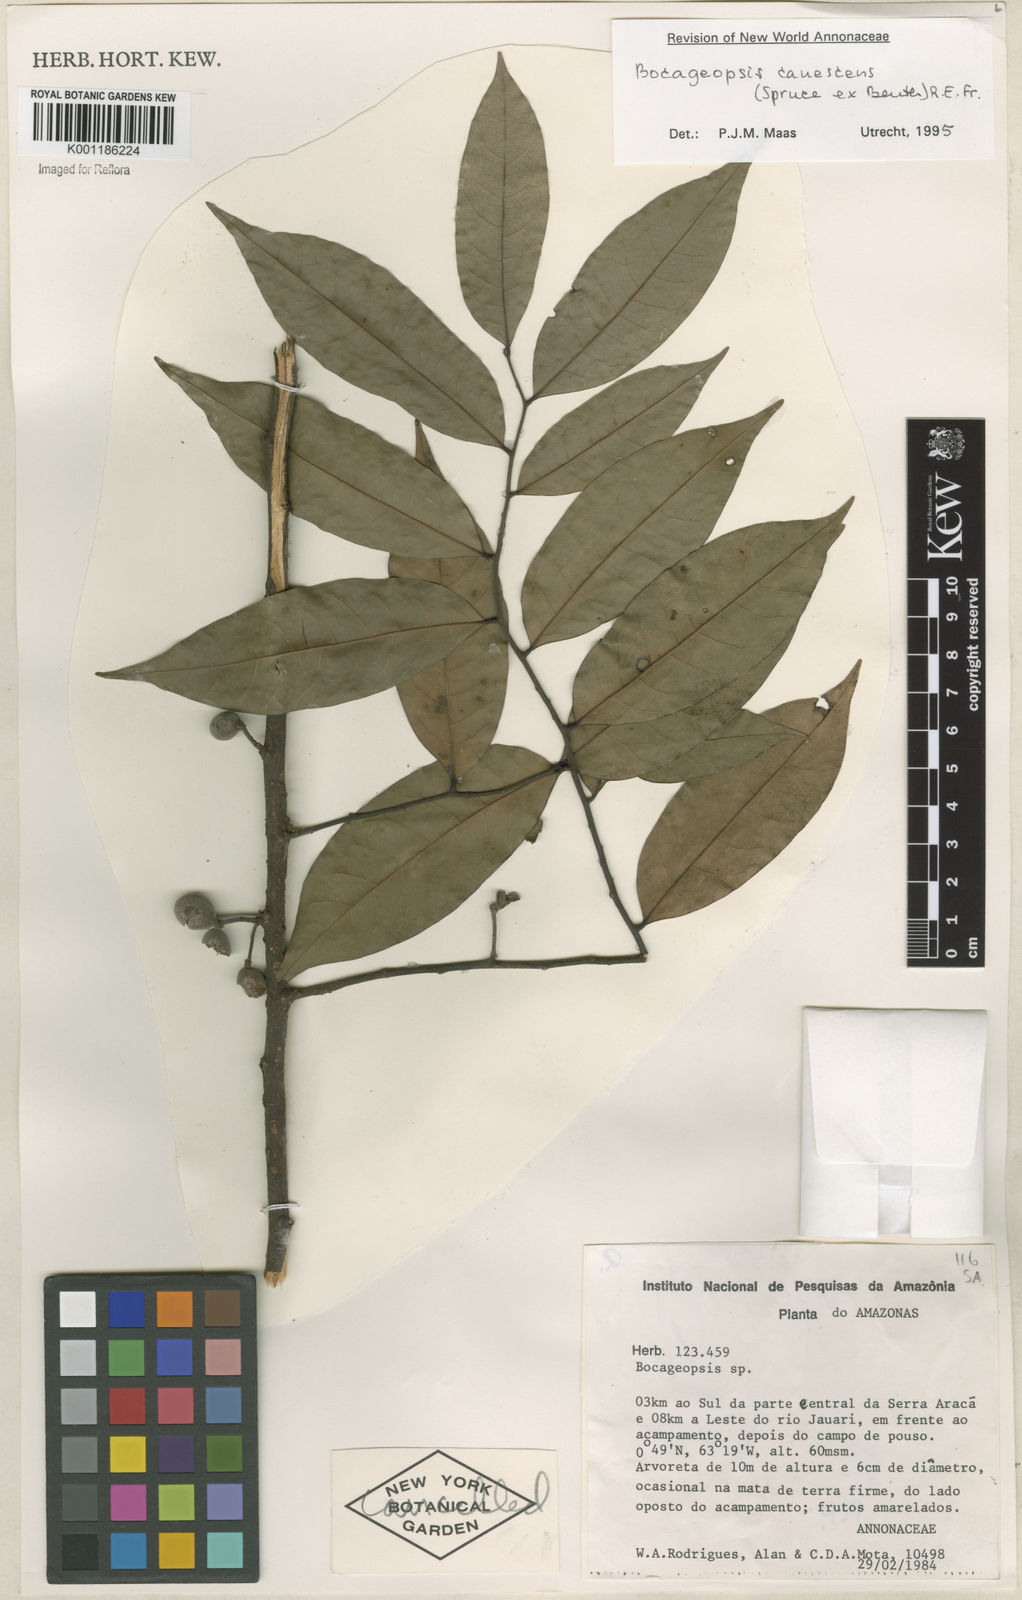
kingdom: Plantae
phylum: Tracheophyta
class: Magnoliopsida
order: Magnoliales
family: Annonaceae
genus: Bocageopsis
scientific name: Bocageopsis canescens
